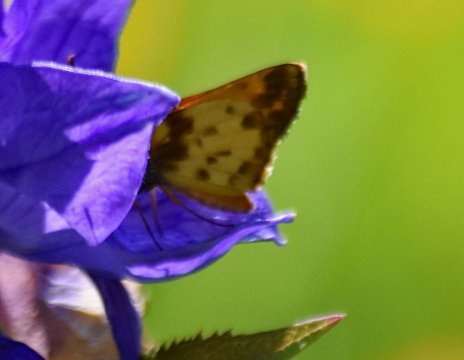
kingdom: Animalia
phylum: Arthropoda
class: Insecta
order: Lepidoptera
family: Hesperiidae
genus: Lon
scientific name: Lon zabulon
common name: Zabulon Skipper
